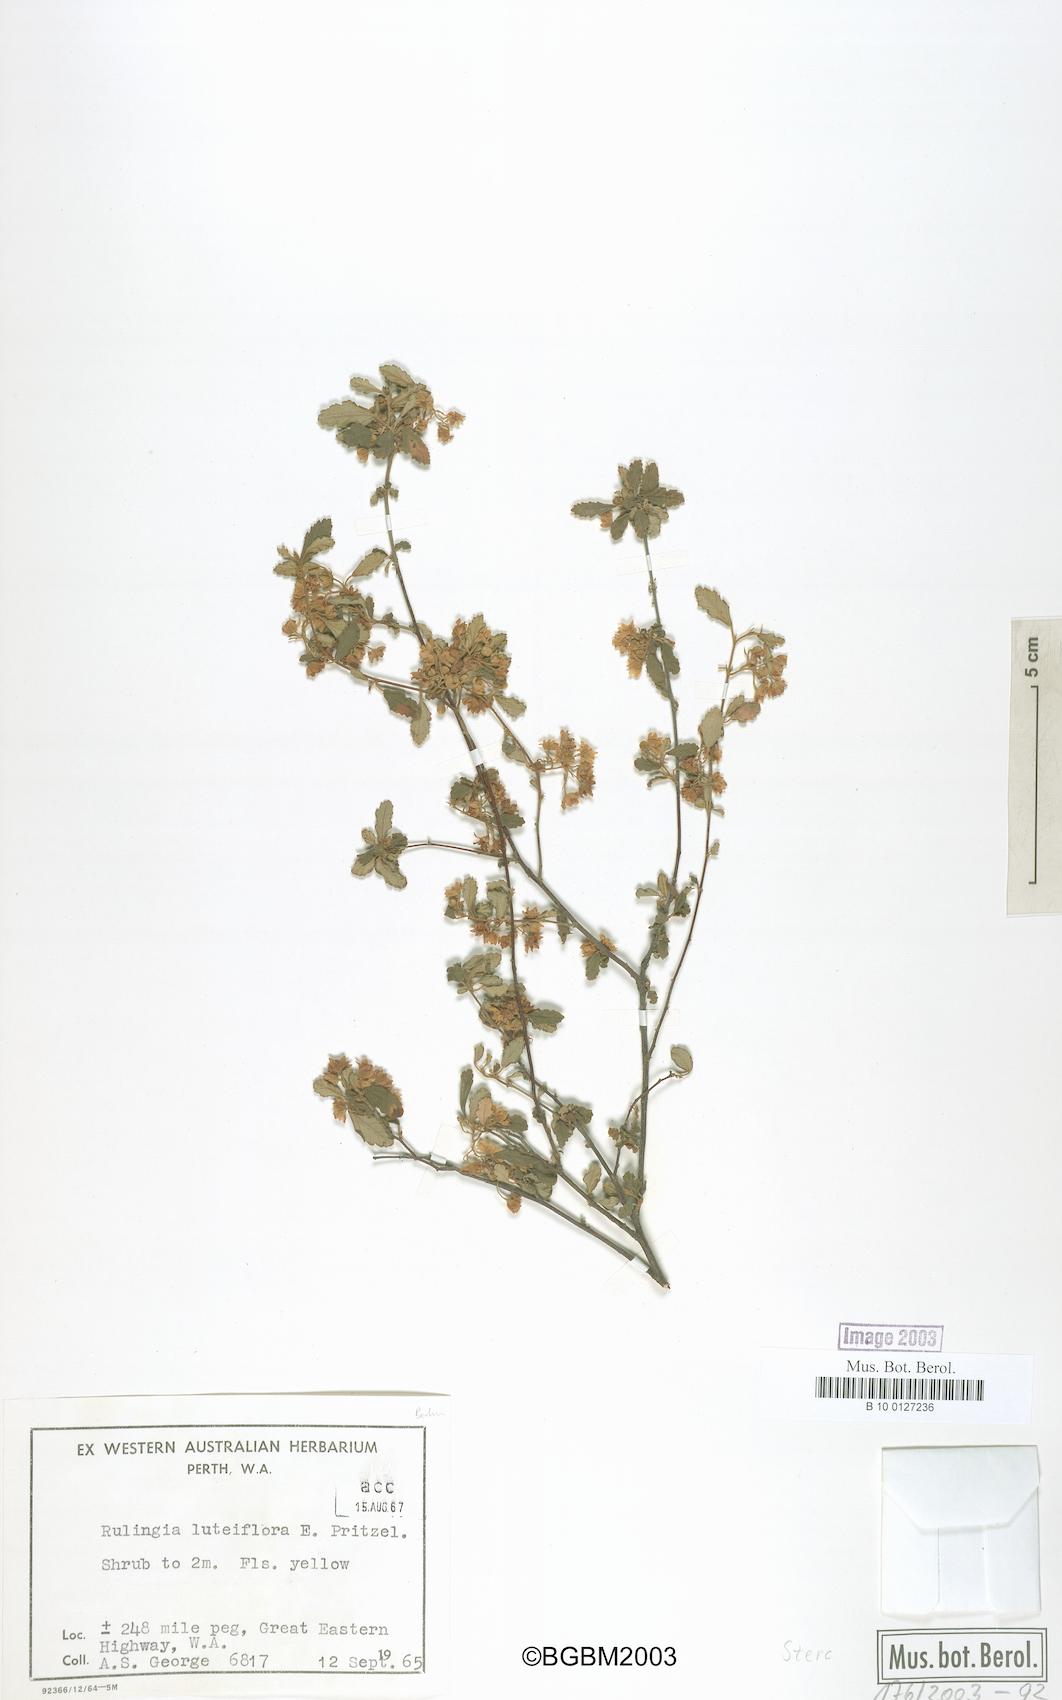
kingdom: Plantae
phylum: Tracheophyta
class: Magnoliopsida
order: Malvales
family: Malvaceae
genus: Androcalva
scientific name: Androcalva luteiflora
